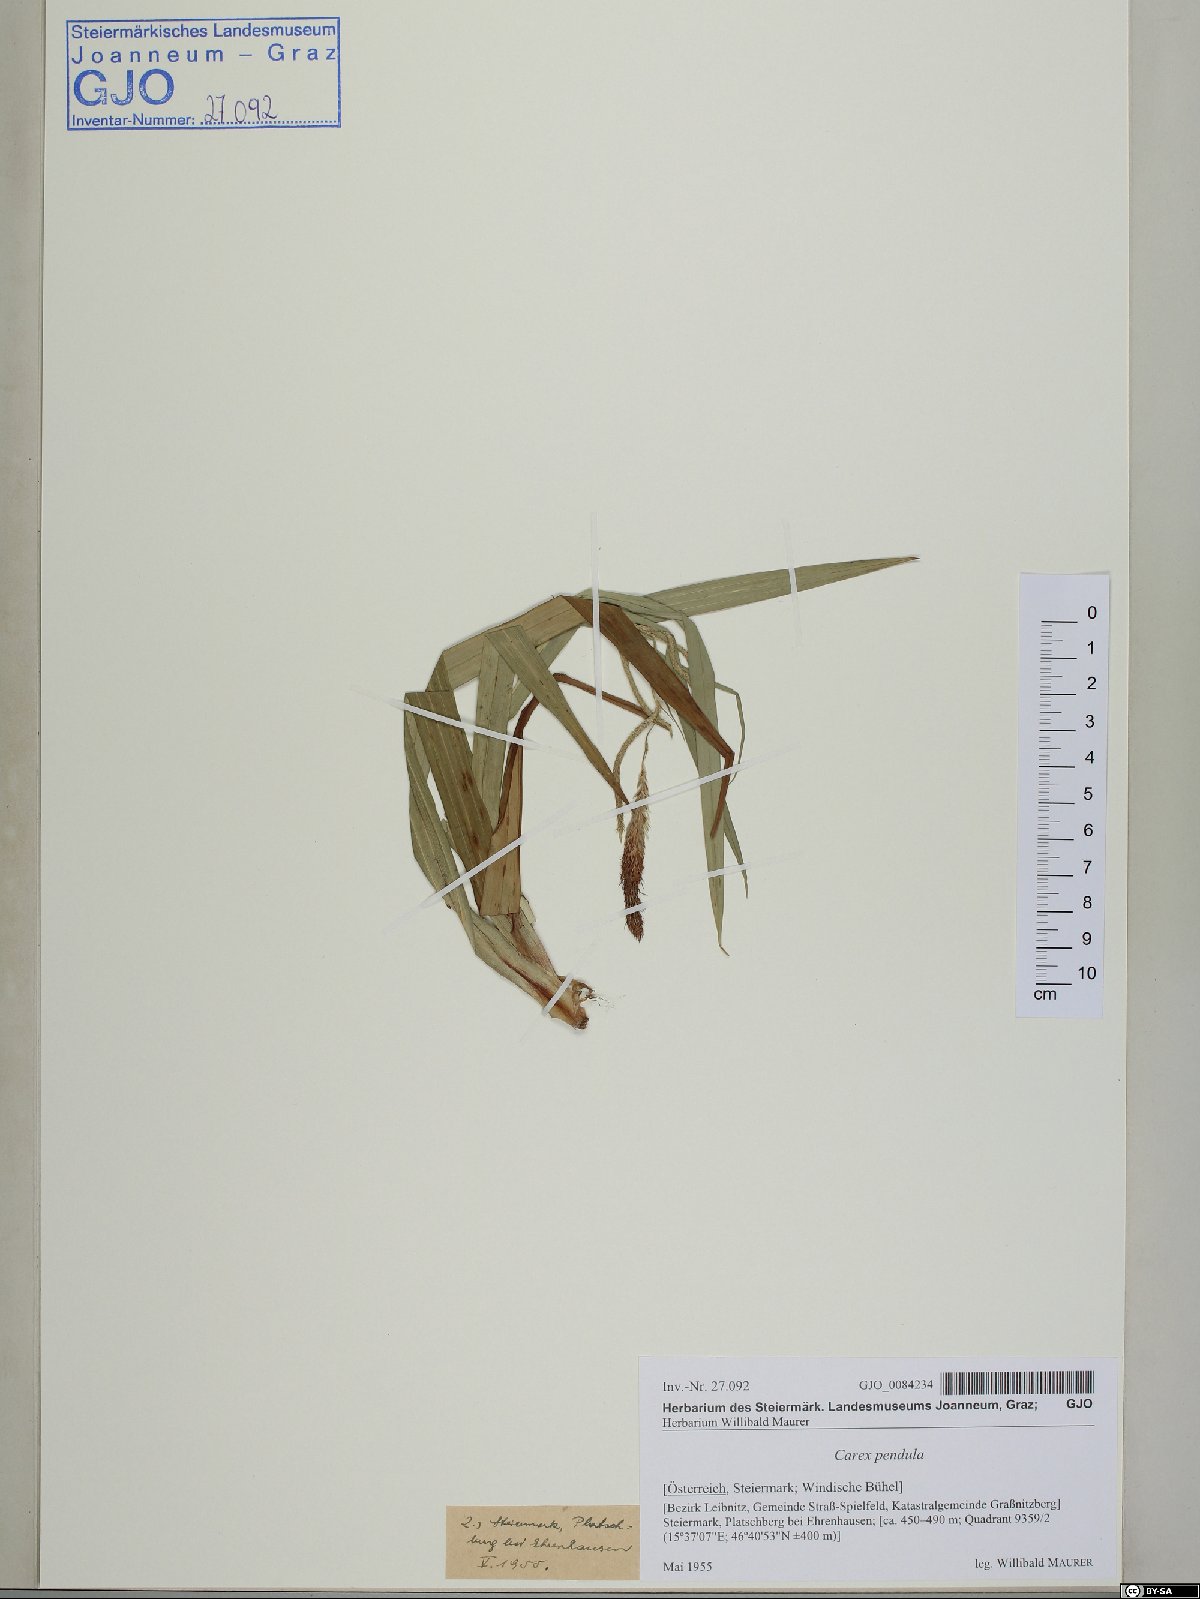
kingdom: Plantae
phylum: Tracheophyta
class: Liliopsida
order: Poales
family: Cyperaceae
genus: Carex
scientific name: Carex pendula
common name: Pendulous sedge
